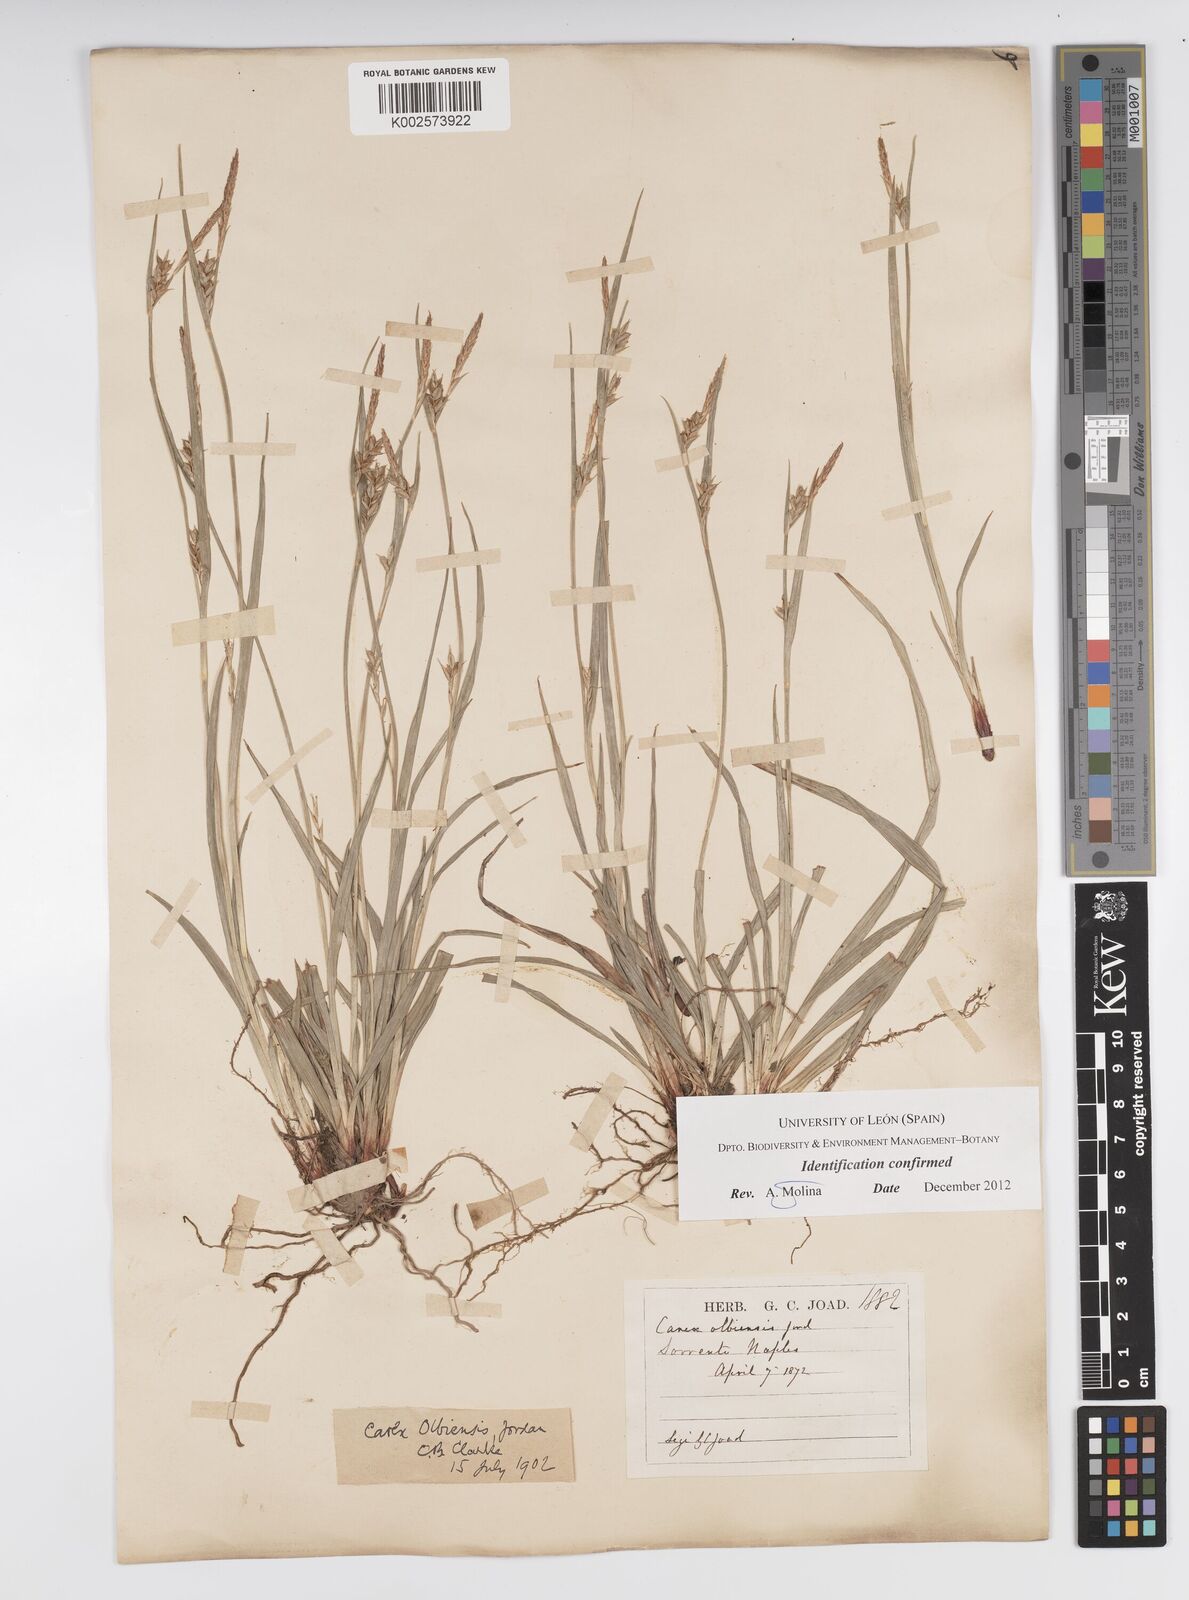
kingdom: Plantae
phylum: Tracheophyta
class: Liliopsida
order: Poales
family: Cyperaceae
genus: Carex
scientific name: Carex olbiensis
